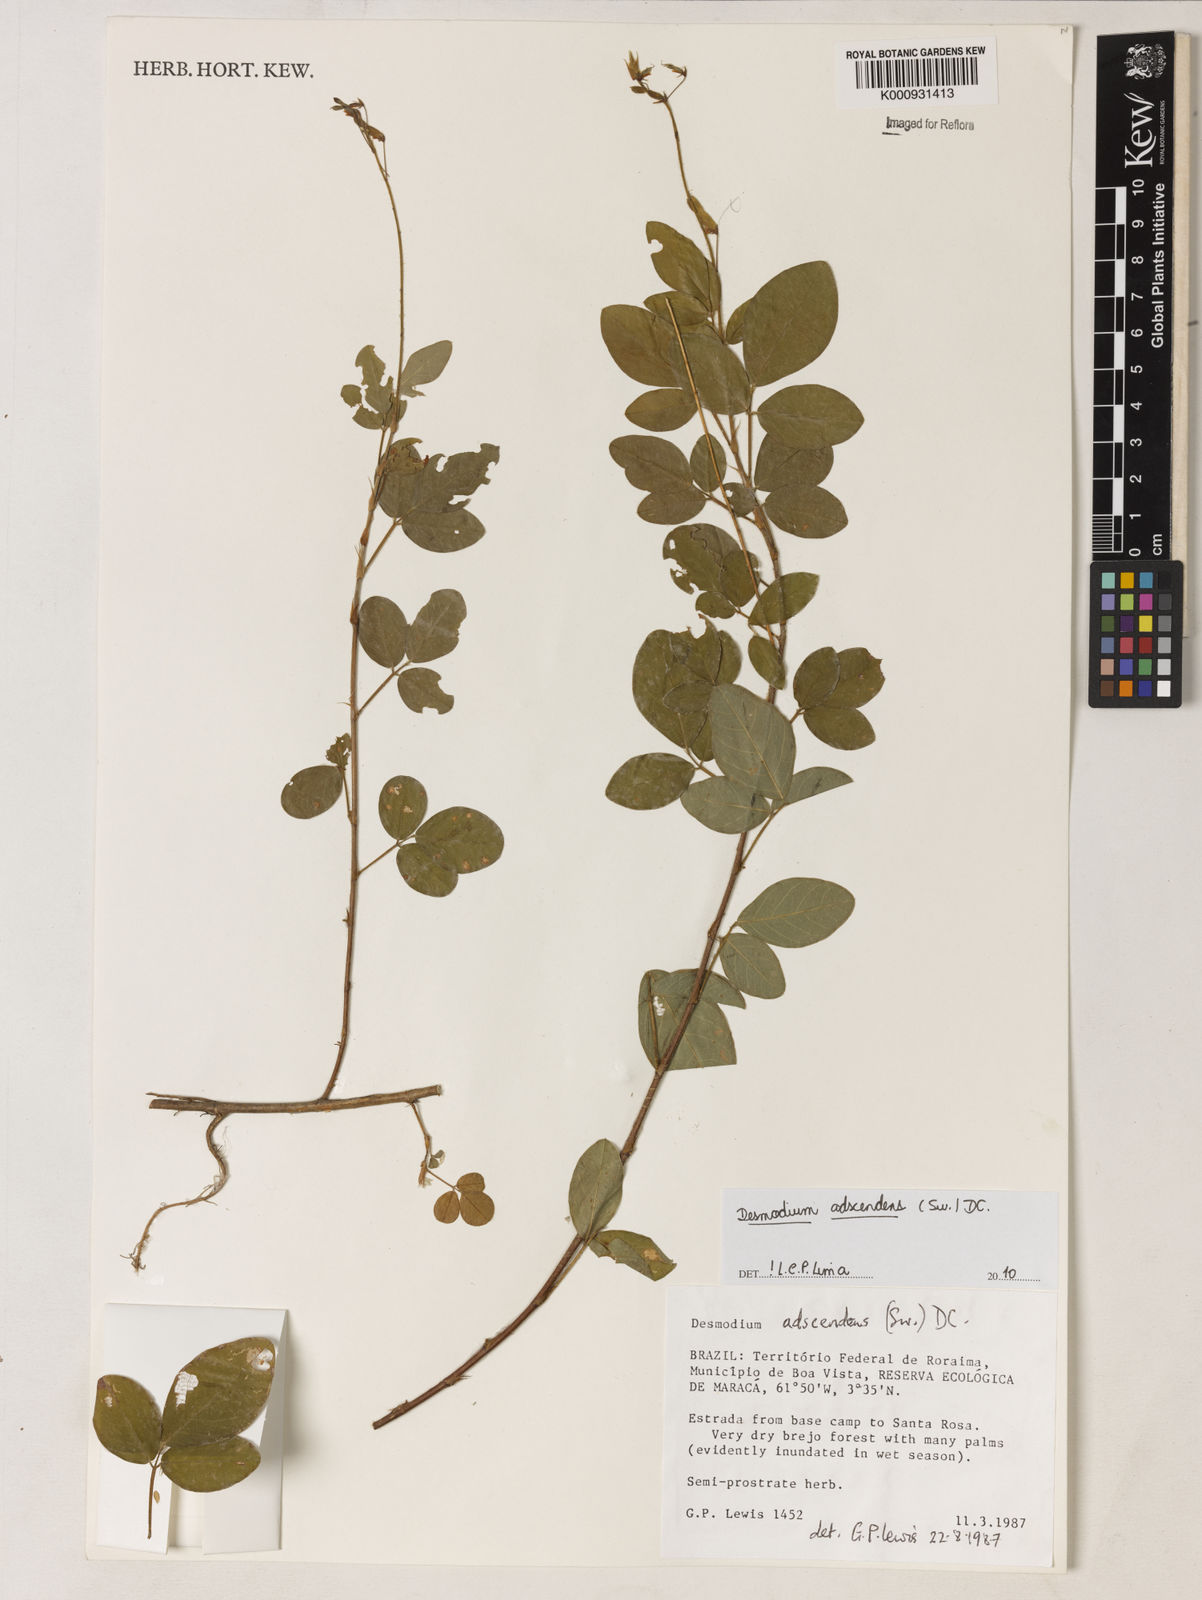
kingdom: Plantae
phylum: Tracheophyta
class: Magnoliopsida
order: Fabales
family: Fabaceae
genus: Grona
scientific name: Grona adscendens
